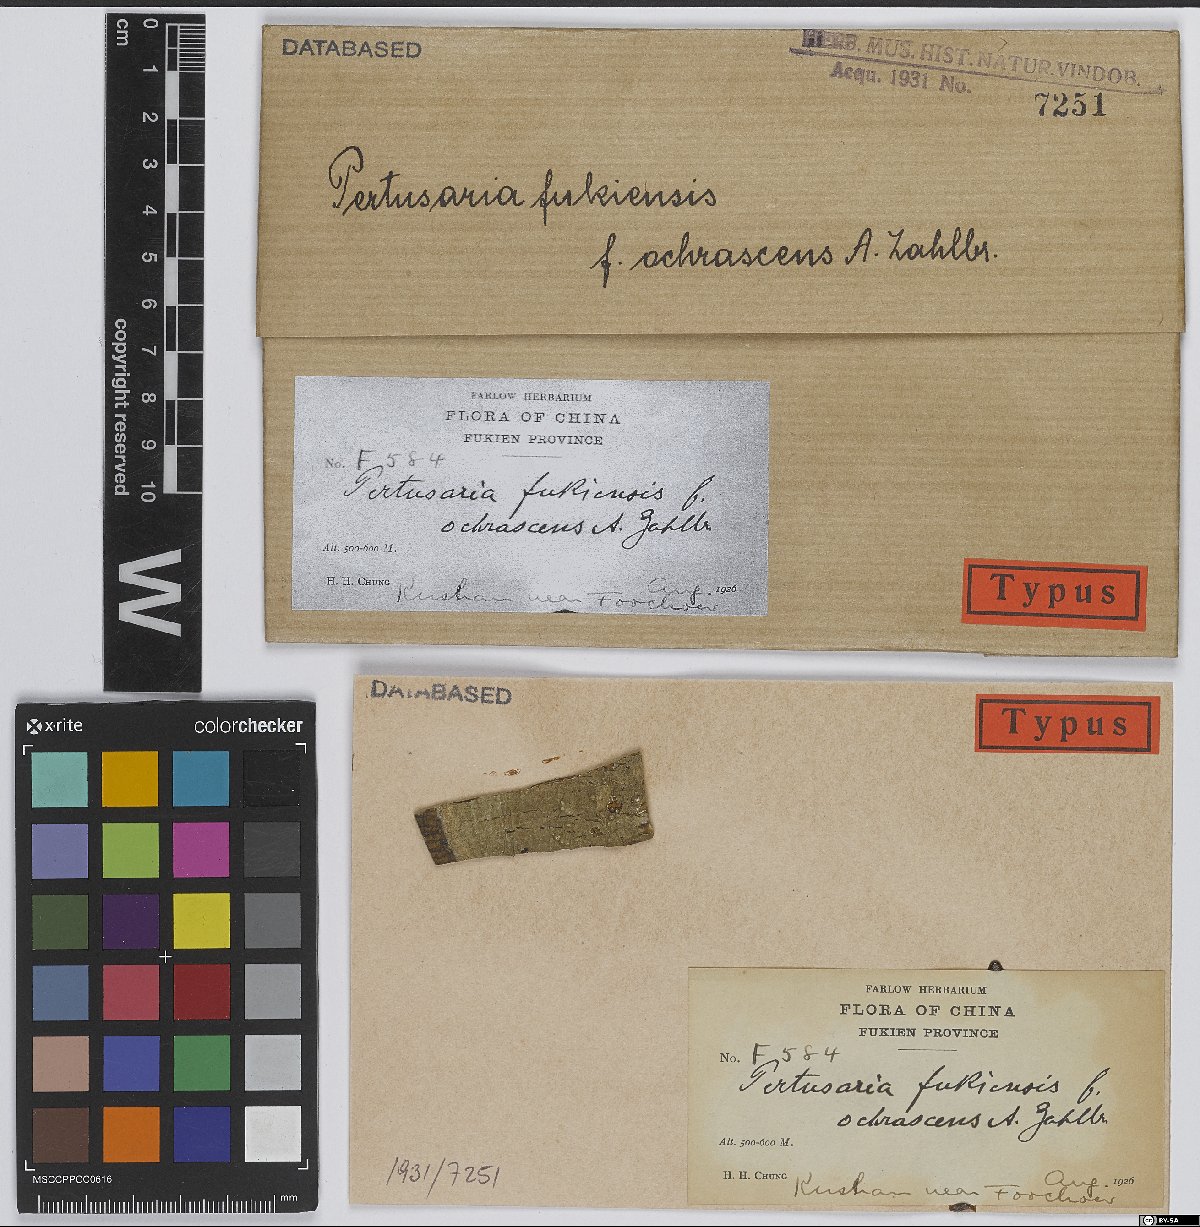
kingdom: Fungi
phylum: Ascomycota
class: Lecanoromycetes
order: Pertusariales
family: Pertusariaceae
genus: Pertusaria
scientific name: Pertusaria
